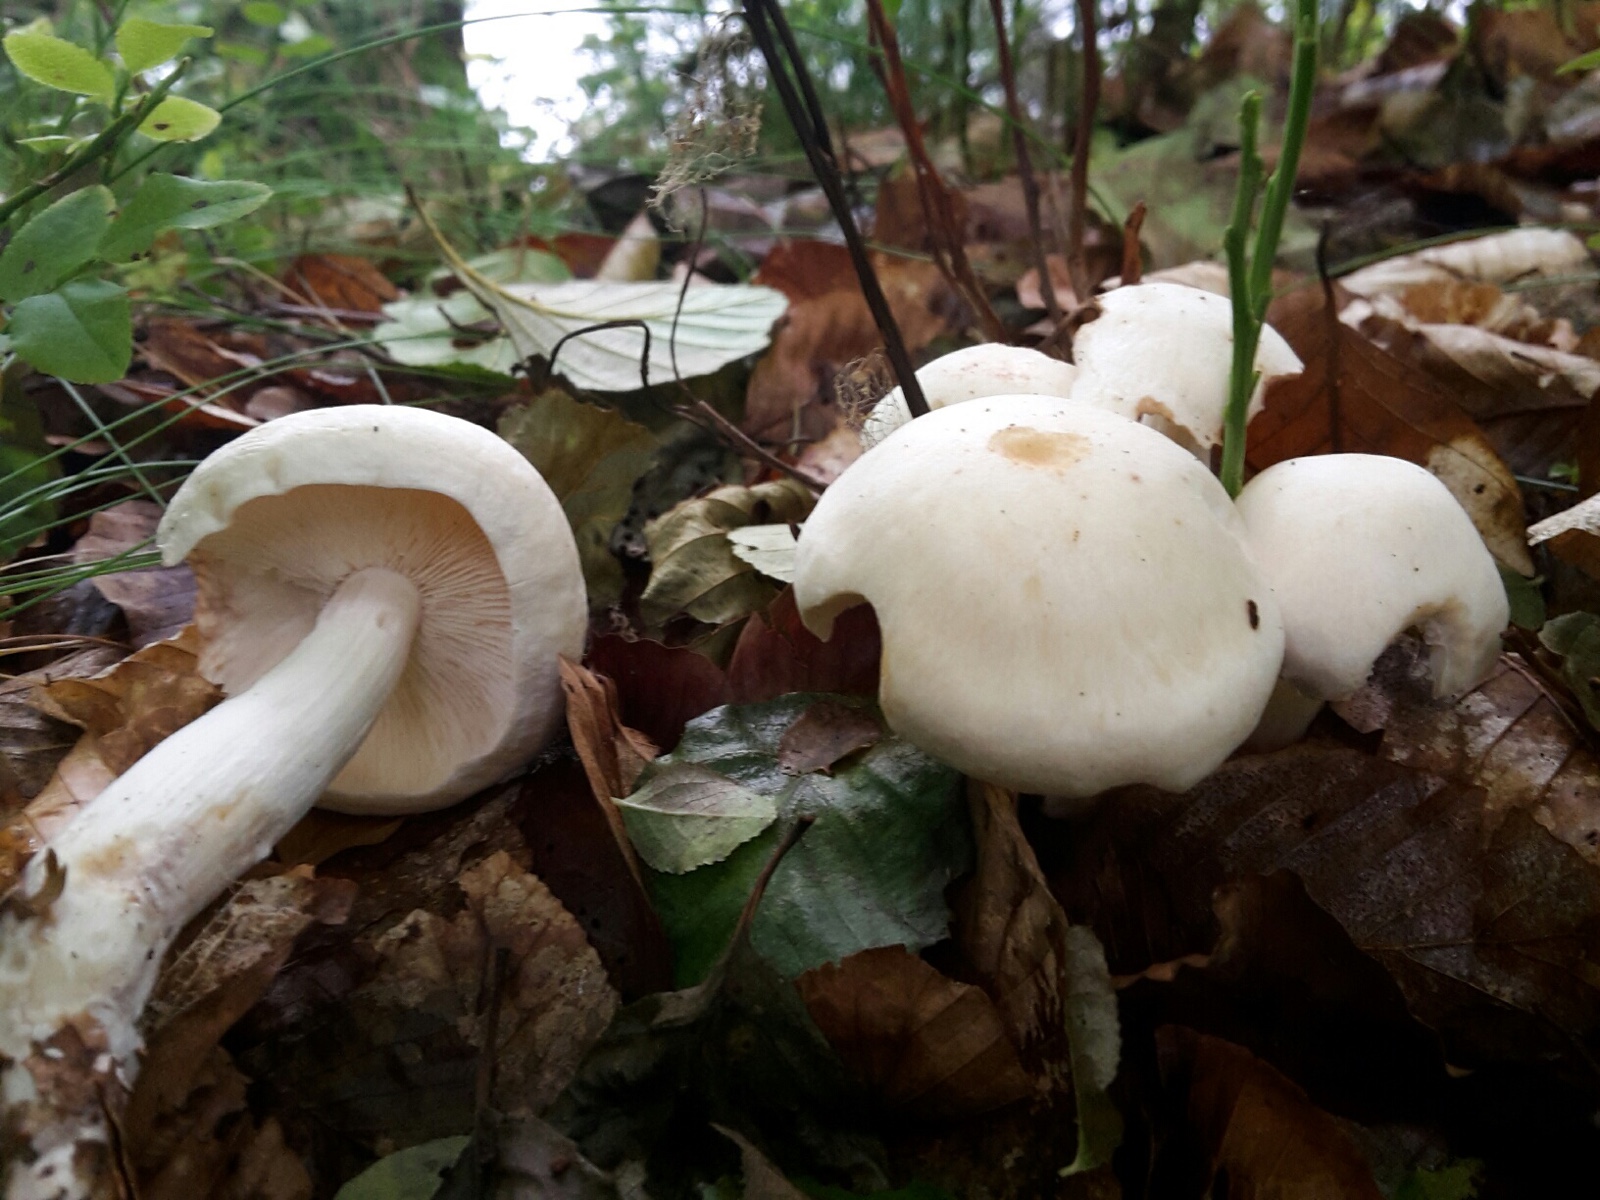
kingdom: Fungi
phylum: Basidiomycota
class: Agaricomycetes
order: Agaricales
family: Omphalotaceae
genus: Rhodocollybia
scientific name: Rhodocollybia maculata
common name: plettet fladhat
